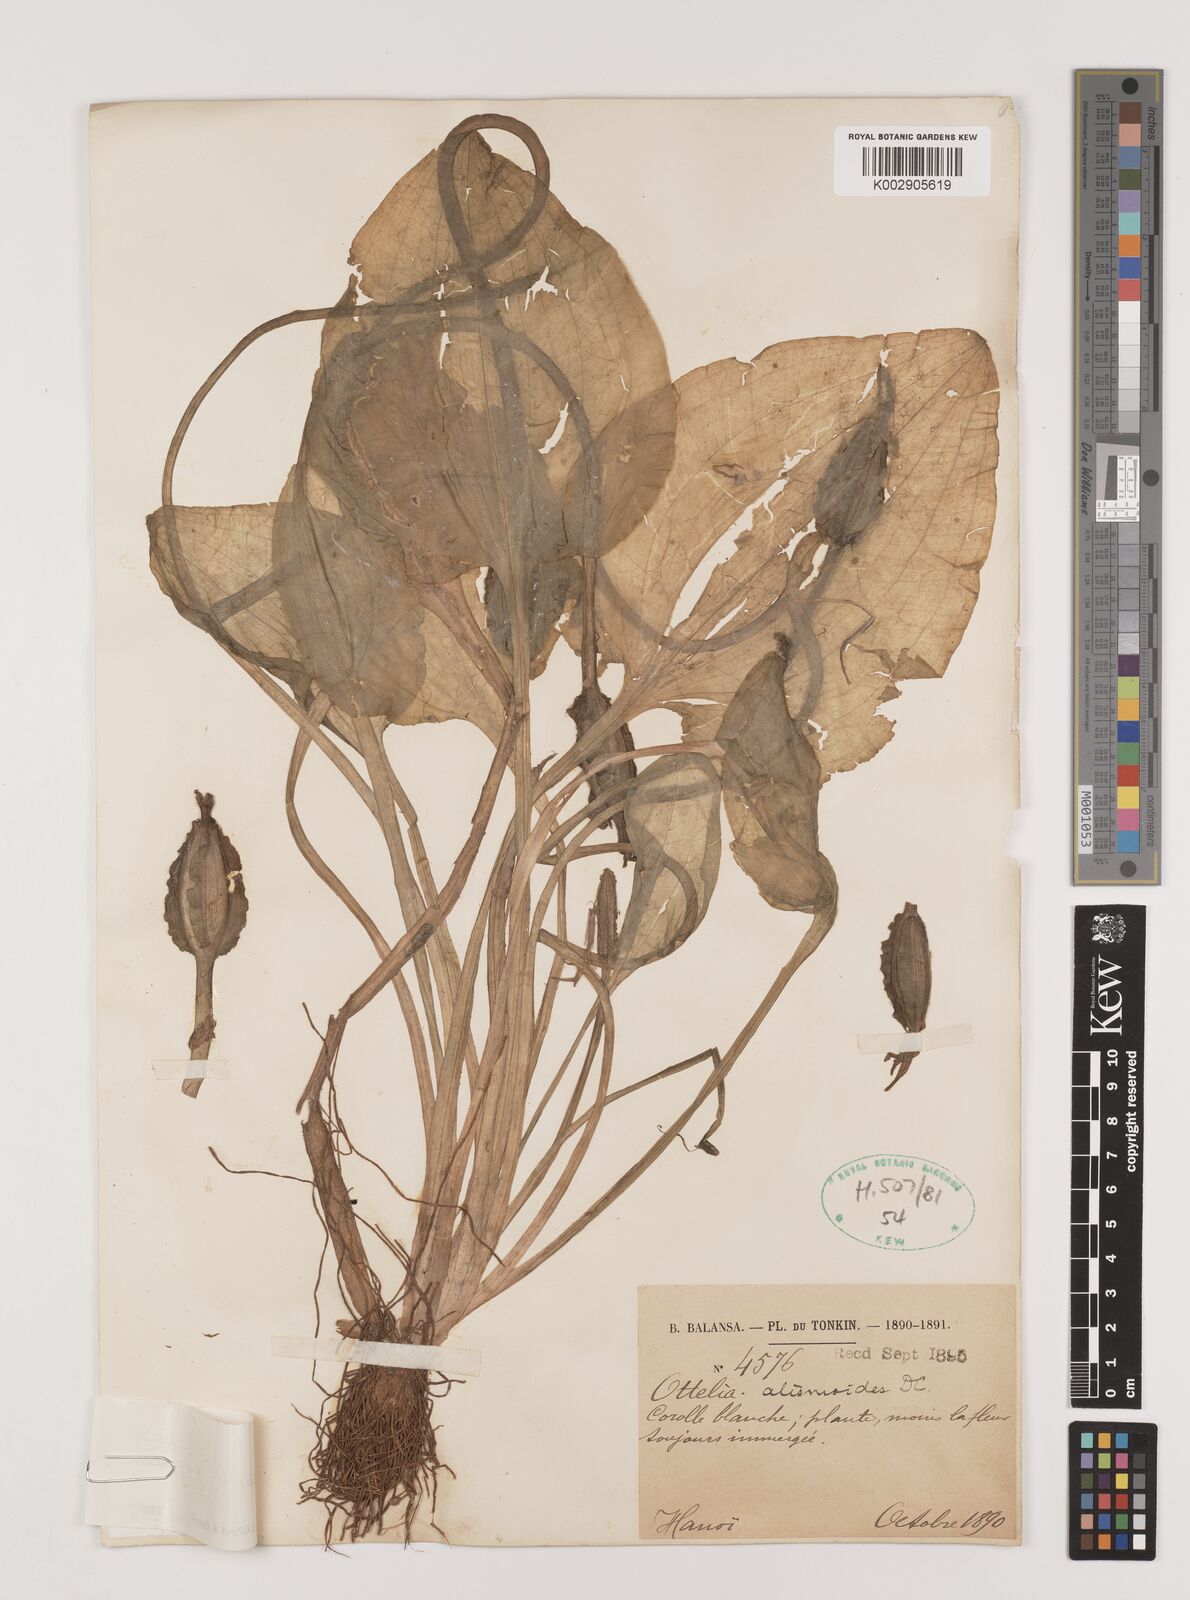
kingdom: Plantae
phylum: Tracheophyta
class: Liliopsida
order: Alismatales
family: Hydrocharitaceae
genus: Ottelia
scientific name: Ottelia alismoides
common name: Duck-lettuce
